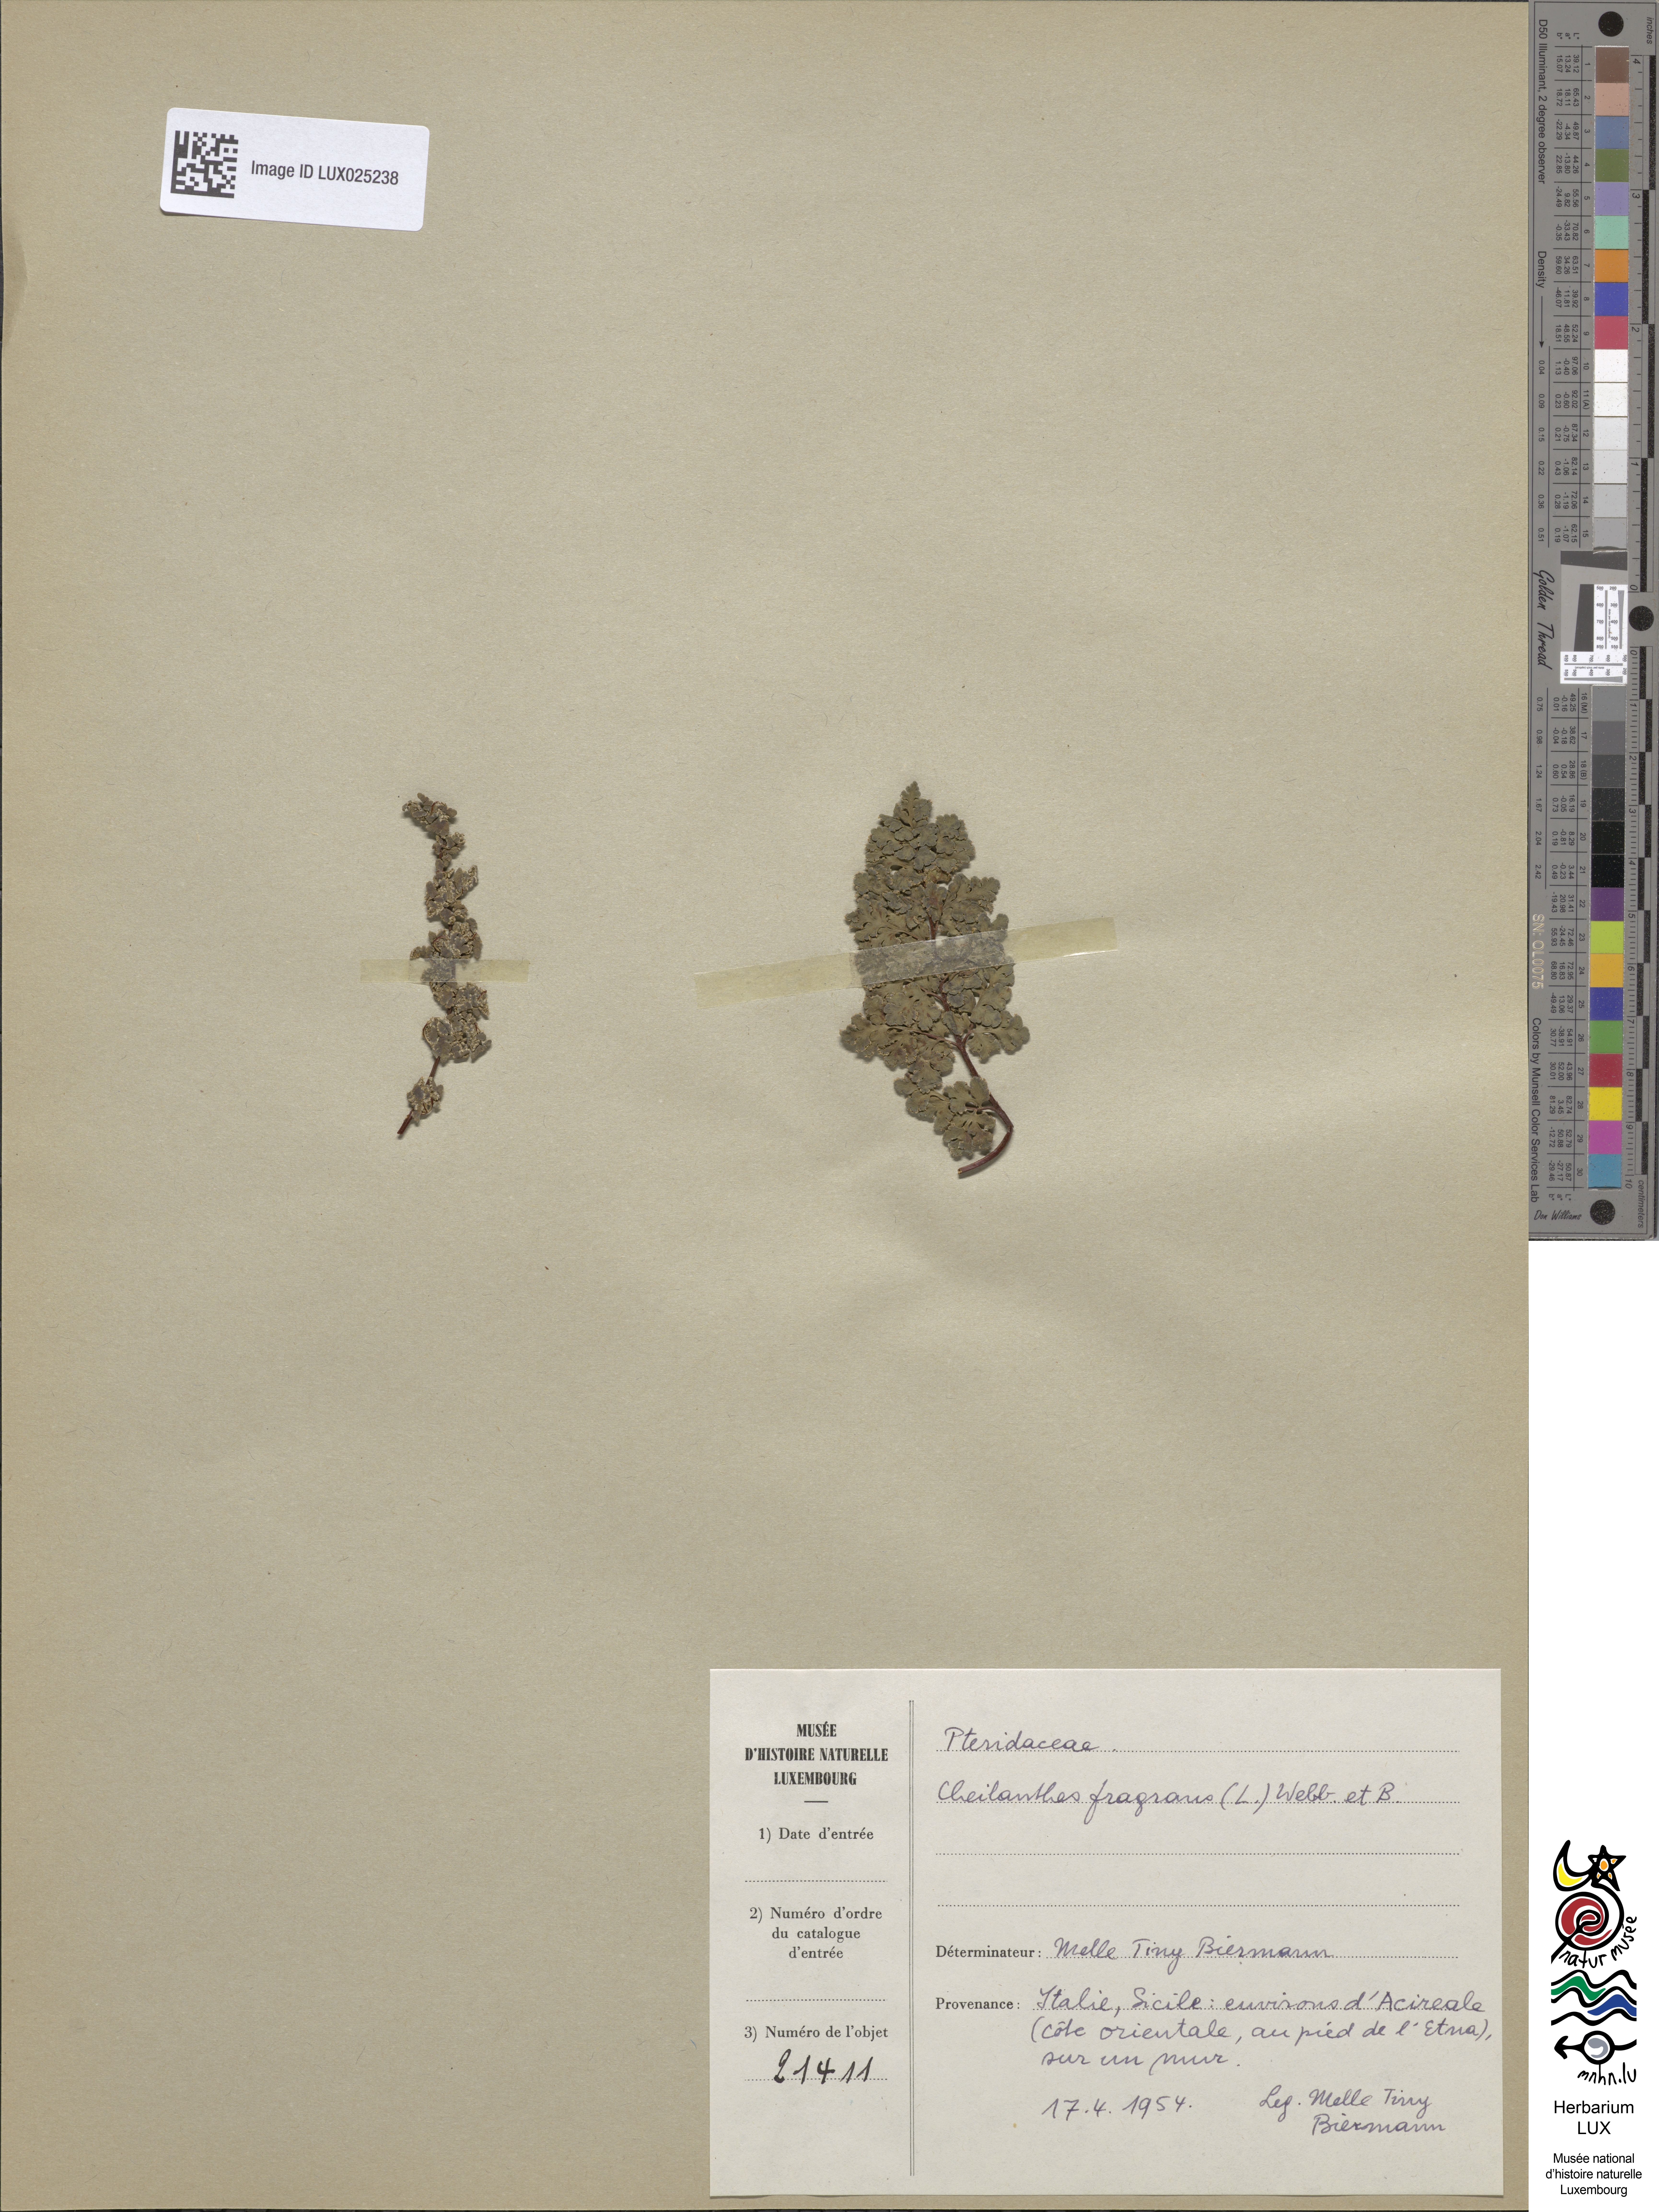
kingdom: Plantae
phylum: Tracheophyta
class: Polypodiopsida
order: Polypodiales
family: Pteridaceae
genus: Oeosporangium
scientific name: Oeosporangium pteridioides
